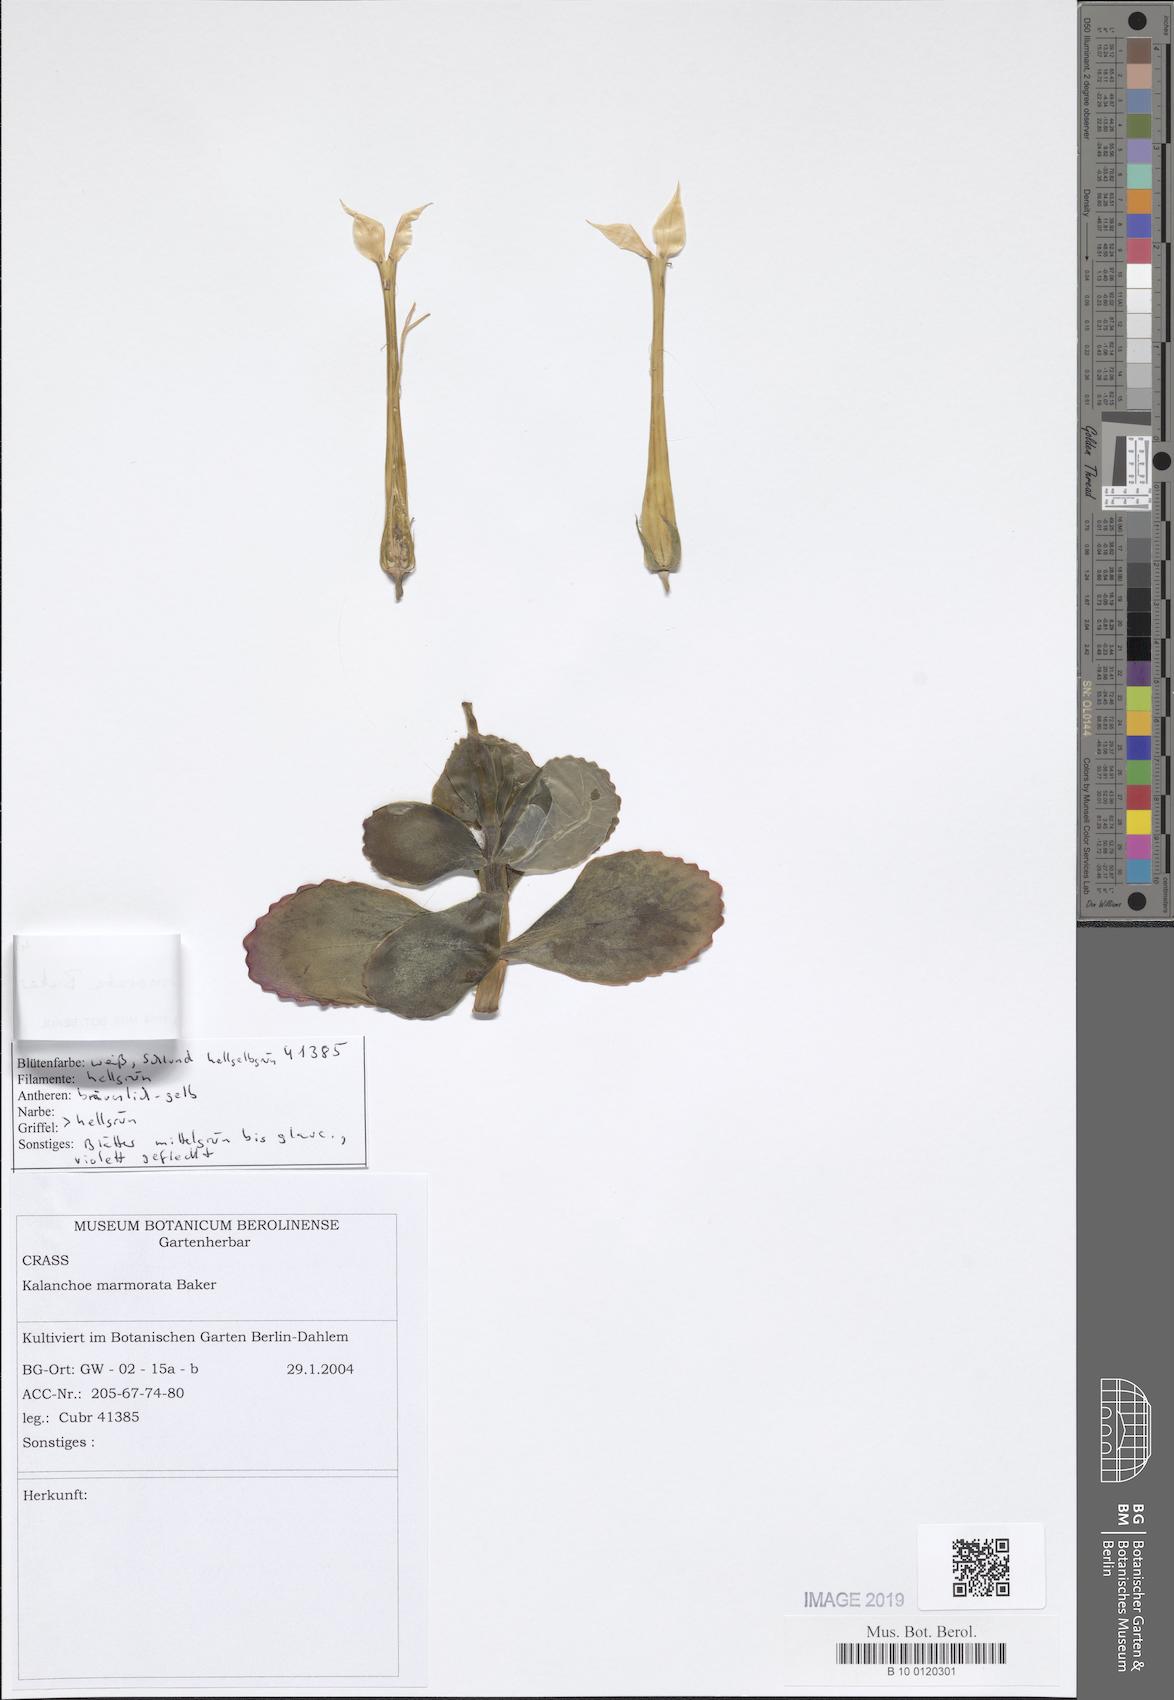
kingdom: Plantae
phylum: Tracheophyta
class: Magnoliopsida
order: Saxifragales
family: Crassulaceae
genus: Kalanchoe
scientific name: Kalanchoe marmorata
